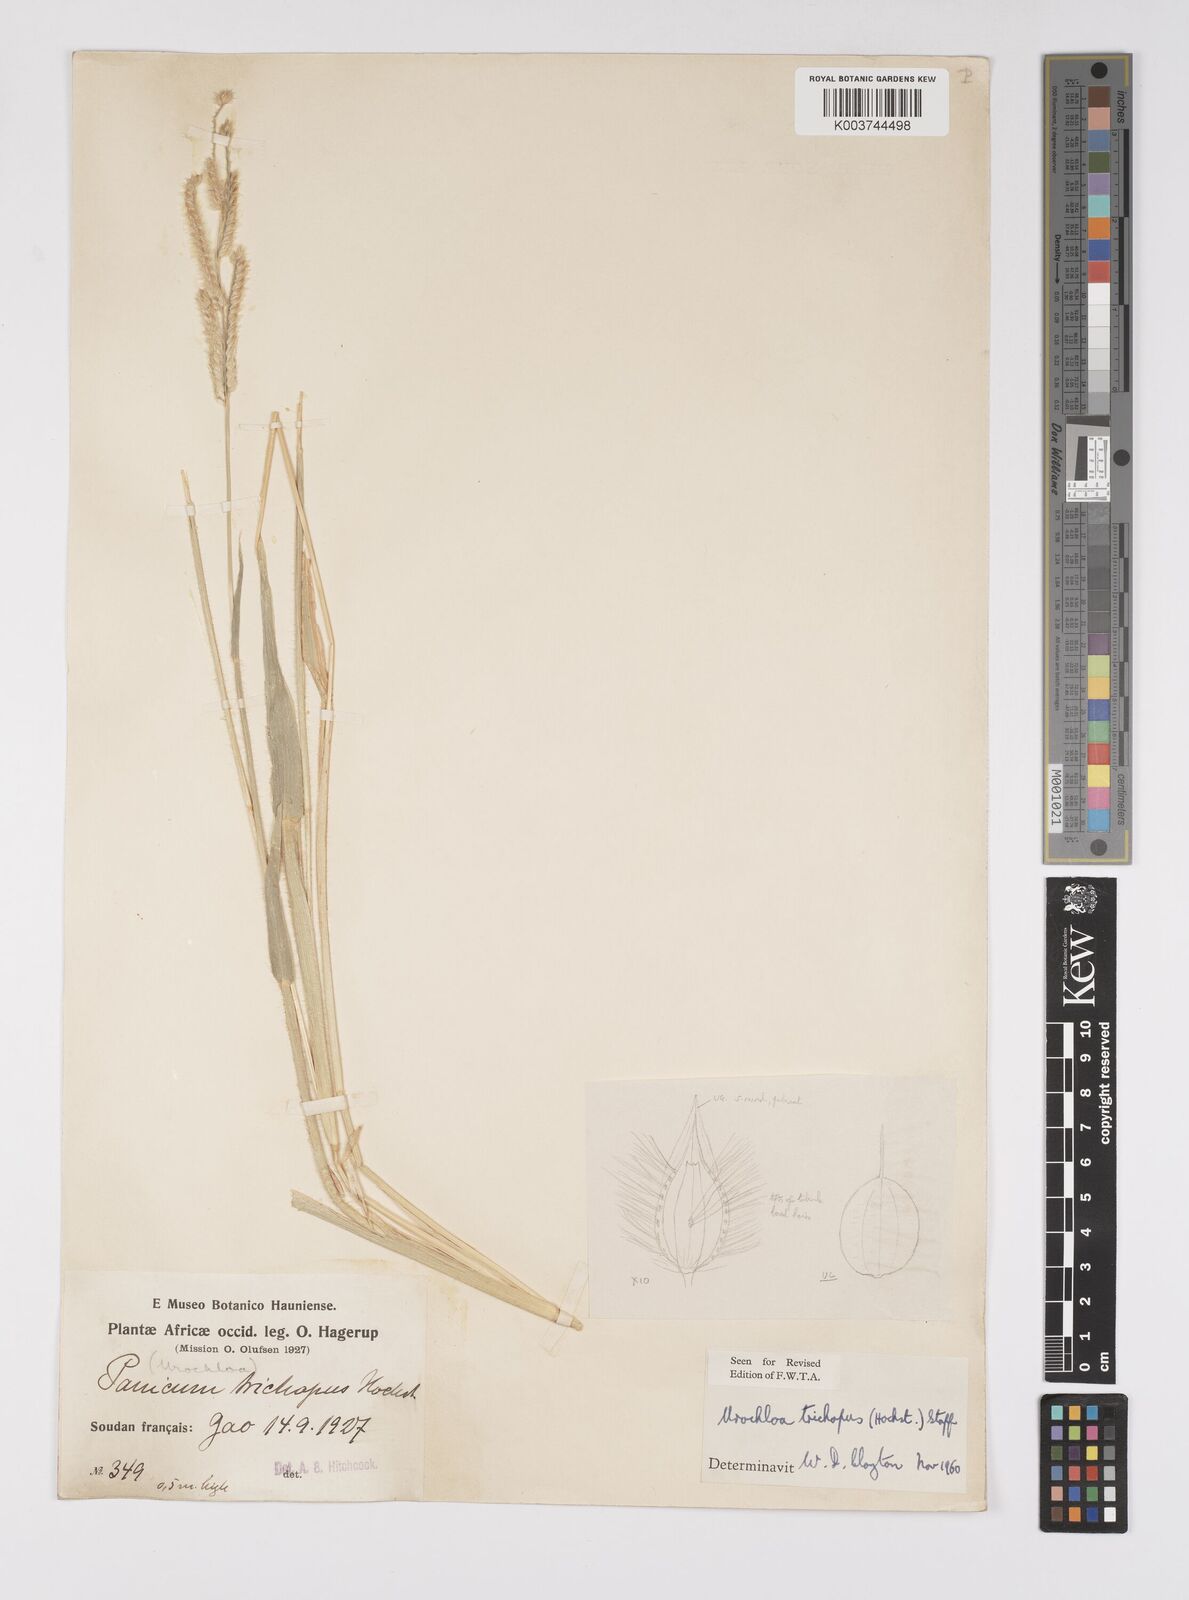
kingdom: Plantae
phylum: Tracheophyta
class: Liliopsida
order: Poales
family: Poaceae
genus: Urochloa
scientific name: Urochloa trichopus
